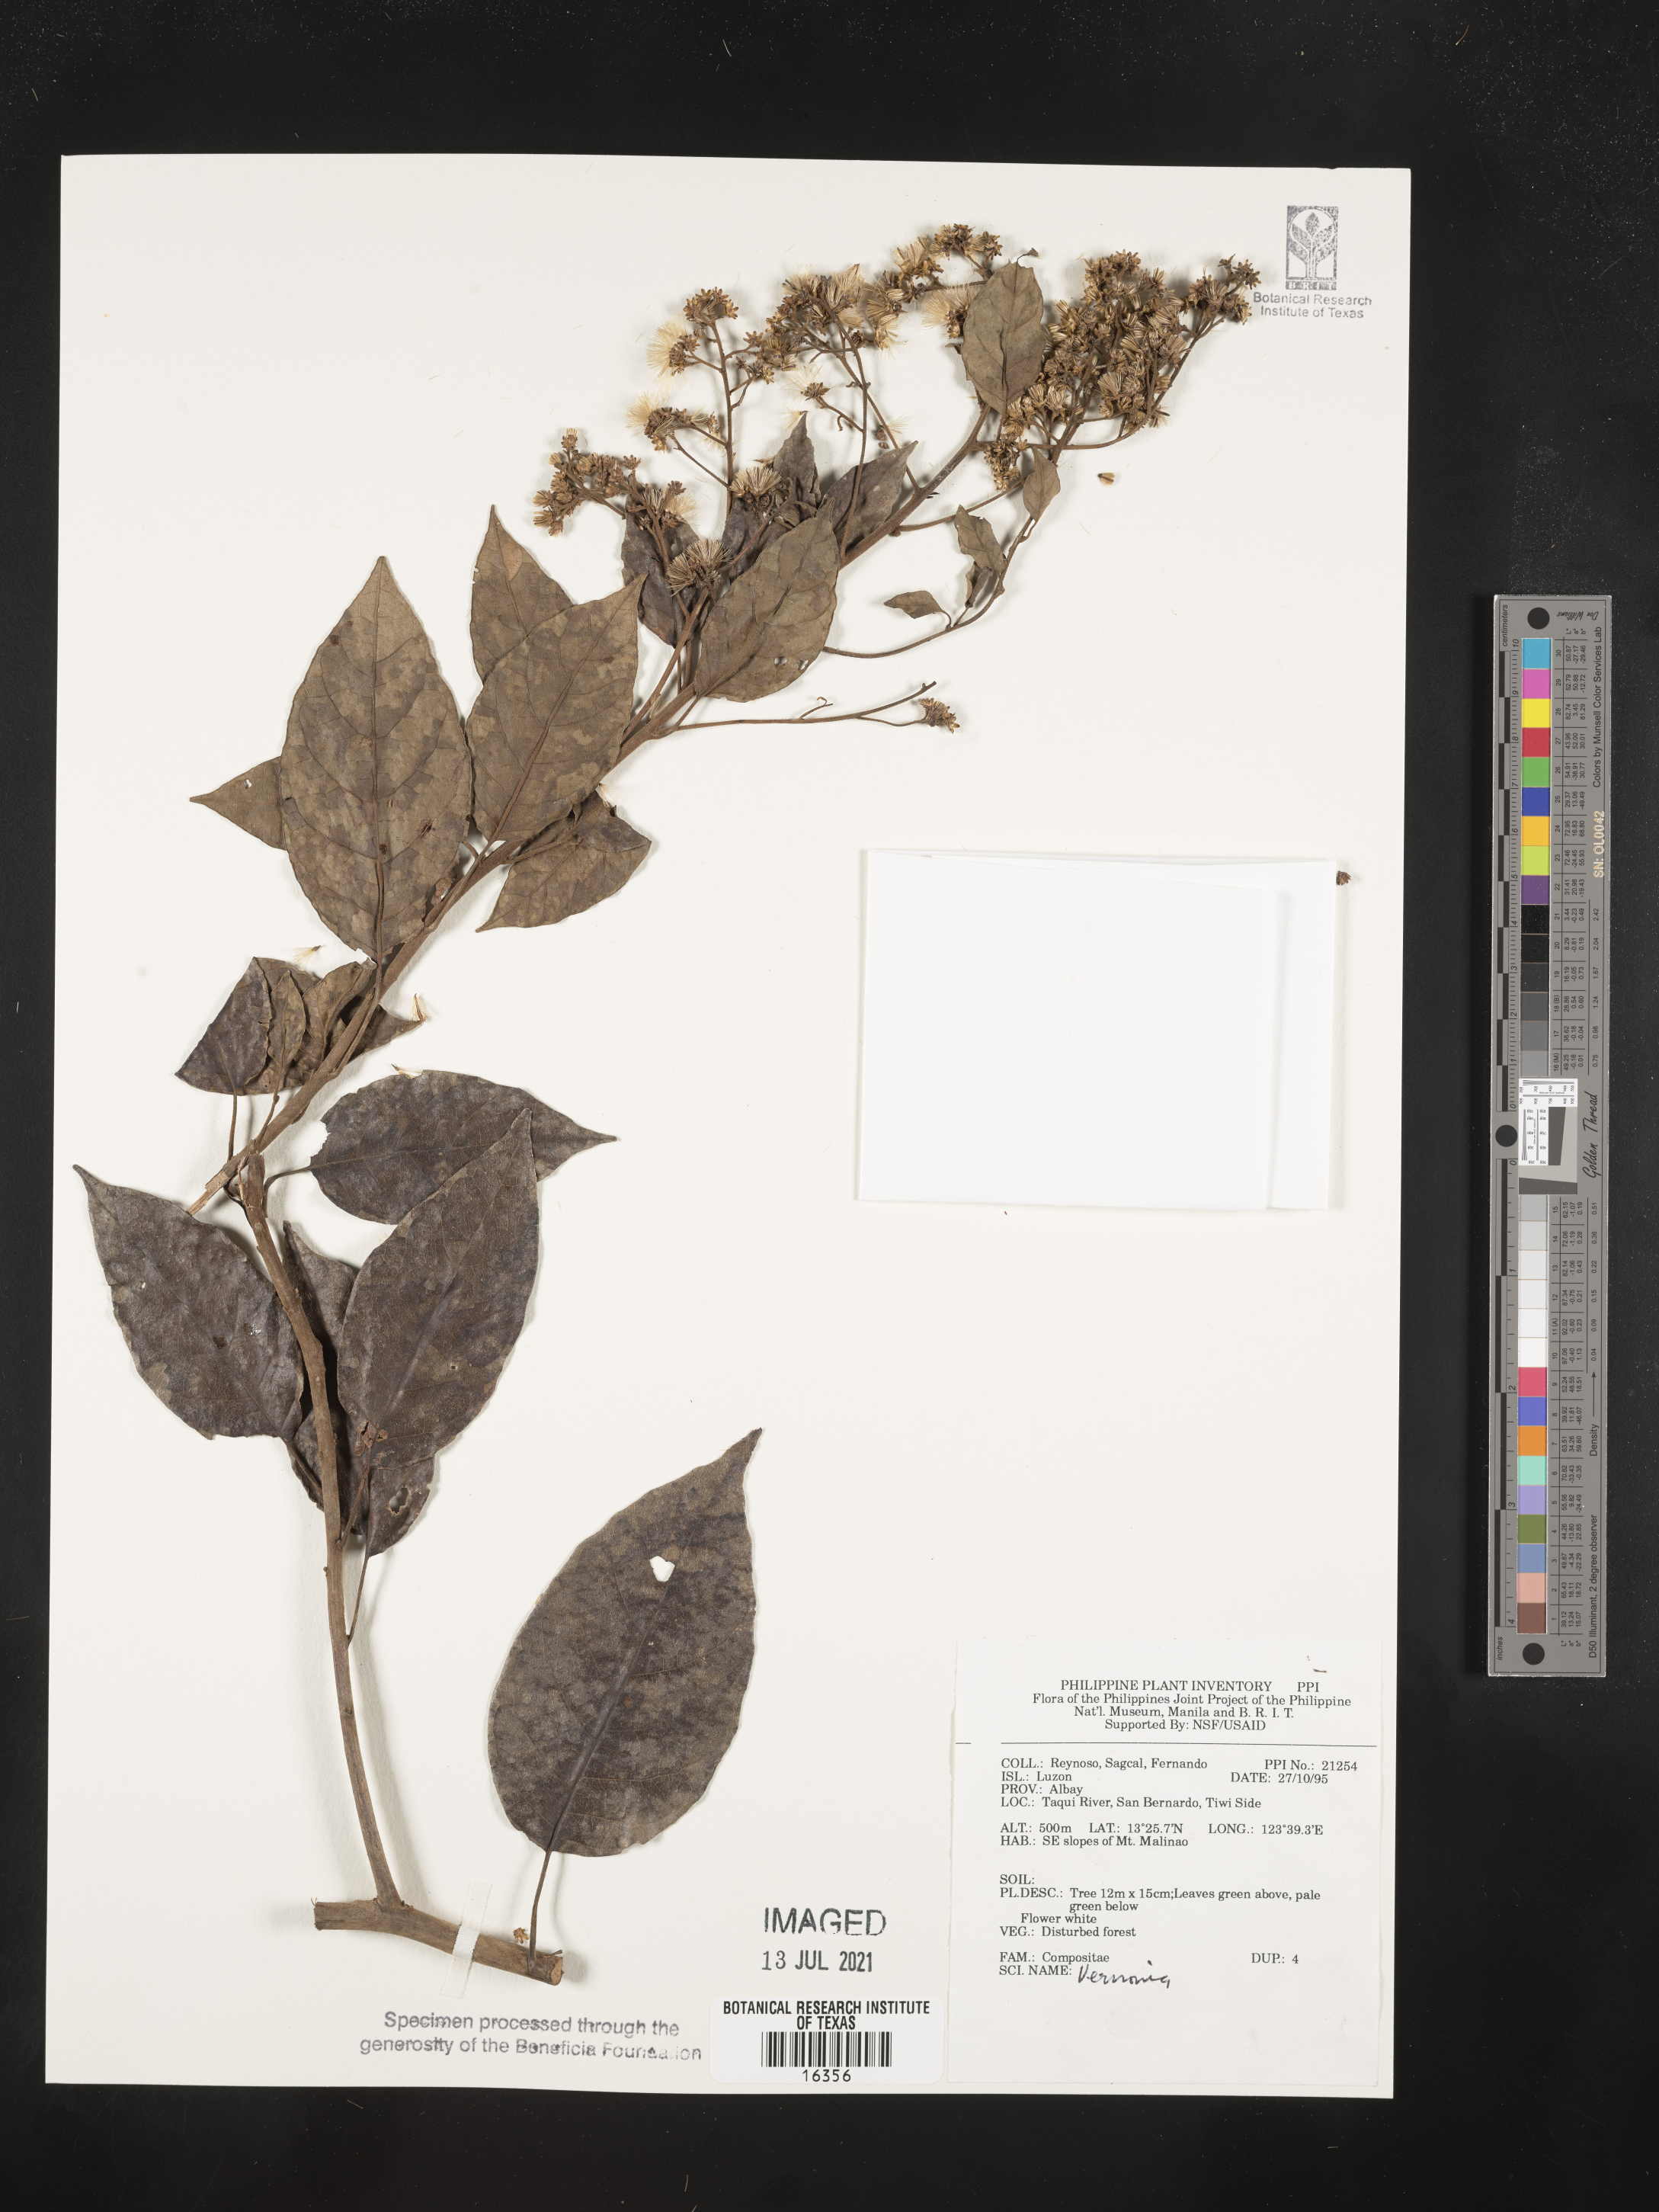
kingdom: Plantae
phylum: Tracheophyta
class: Magnoliopsida
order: Asterales
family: Asteraceae
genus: Vernonia
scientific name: Vernonia
